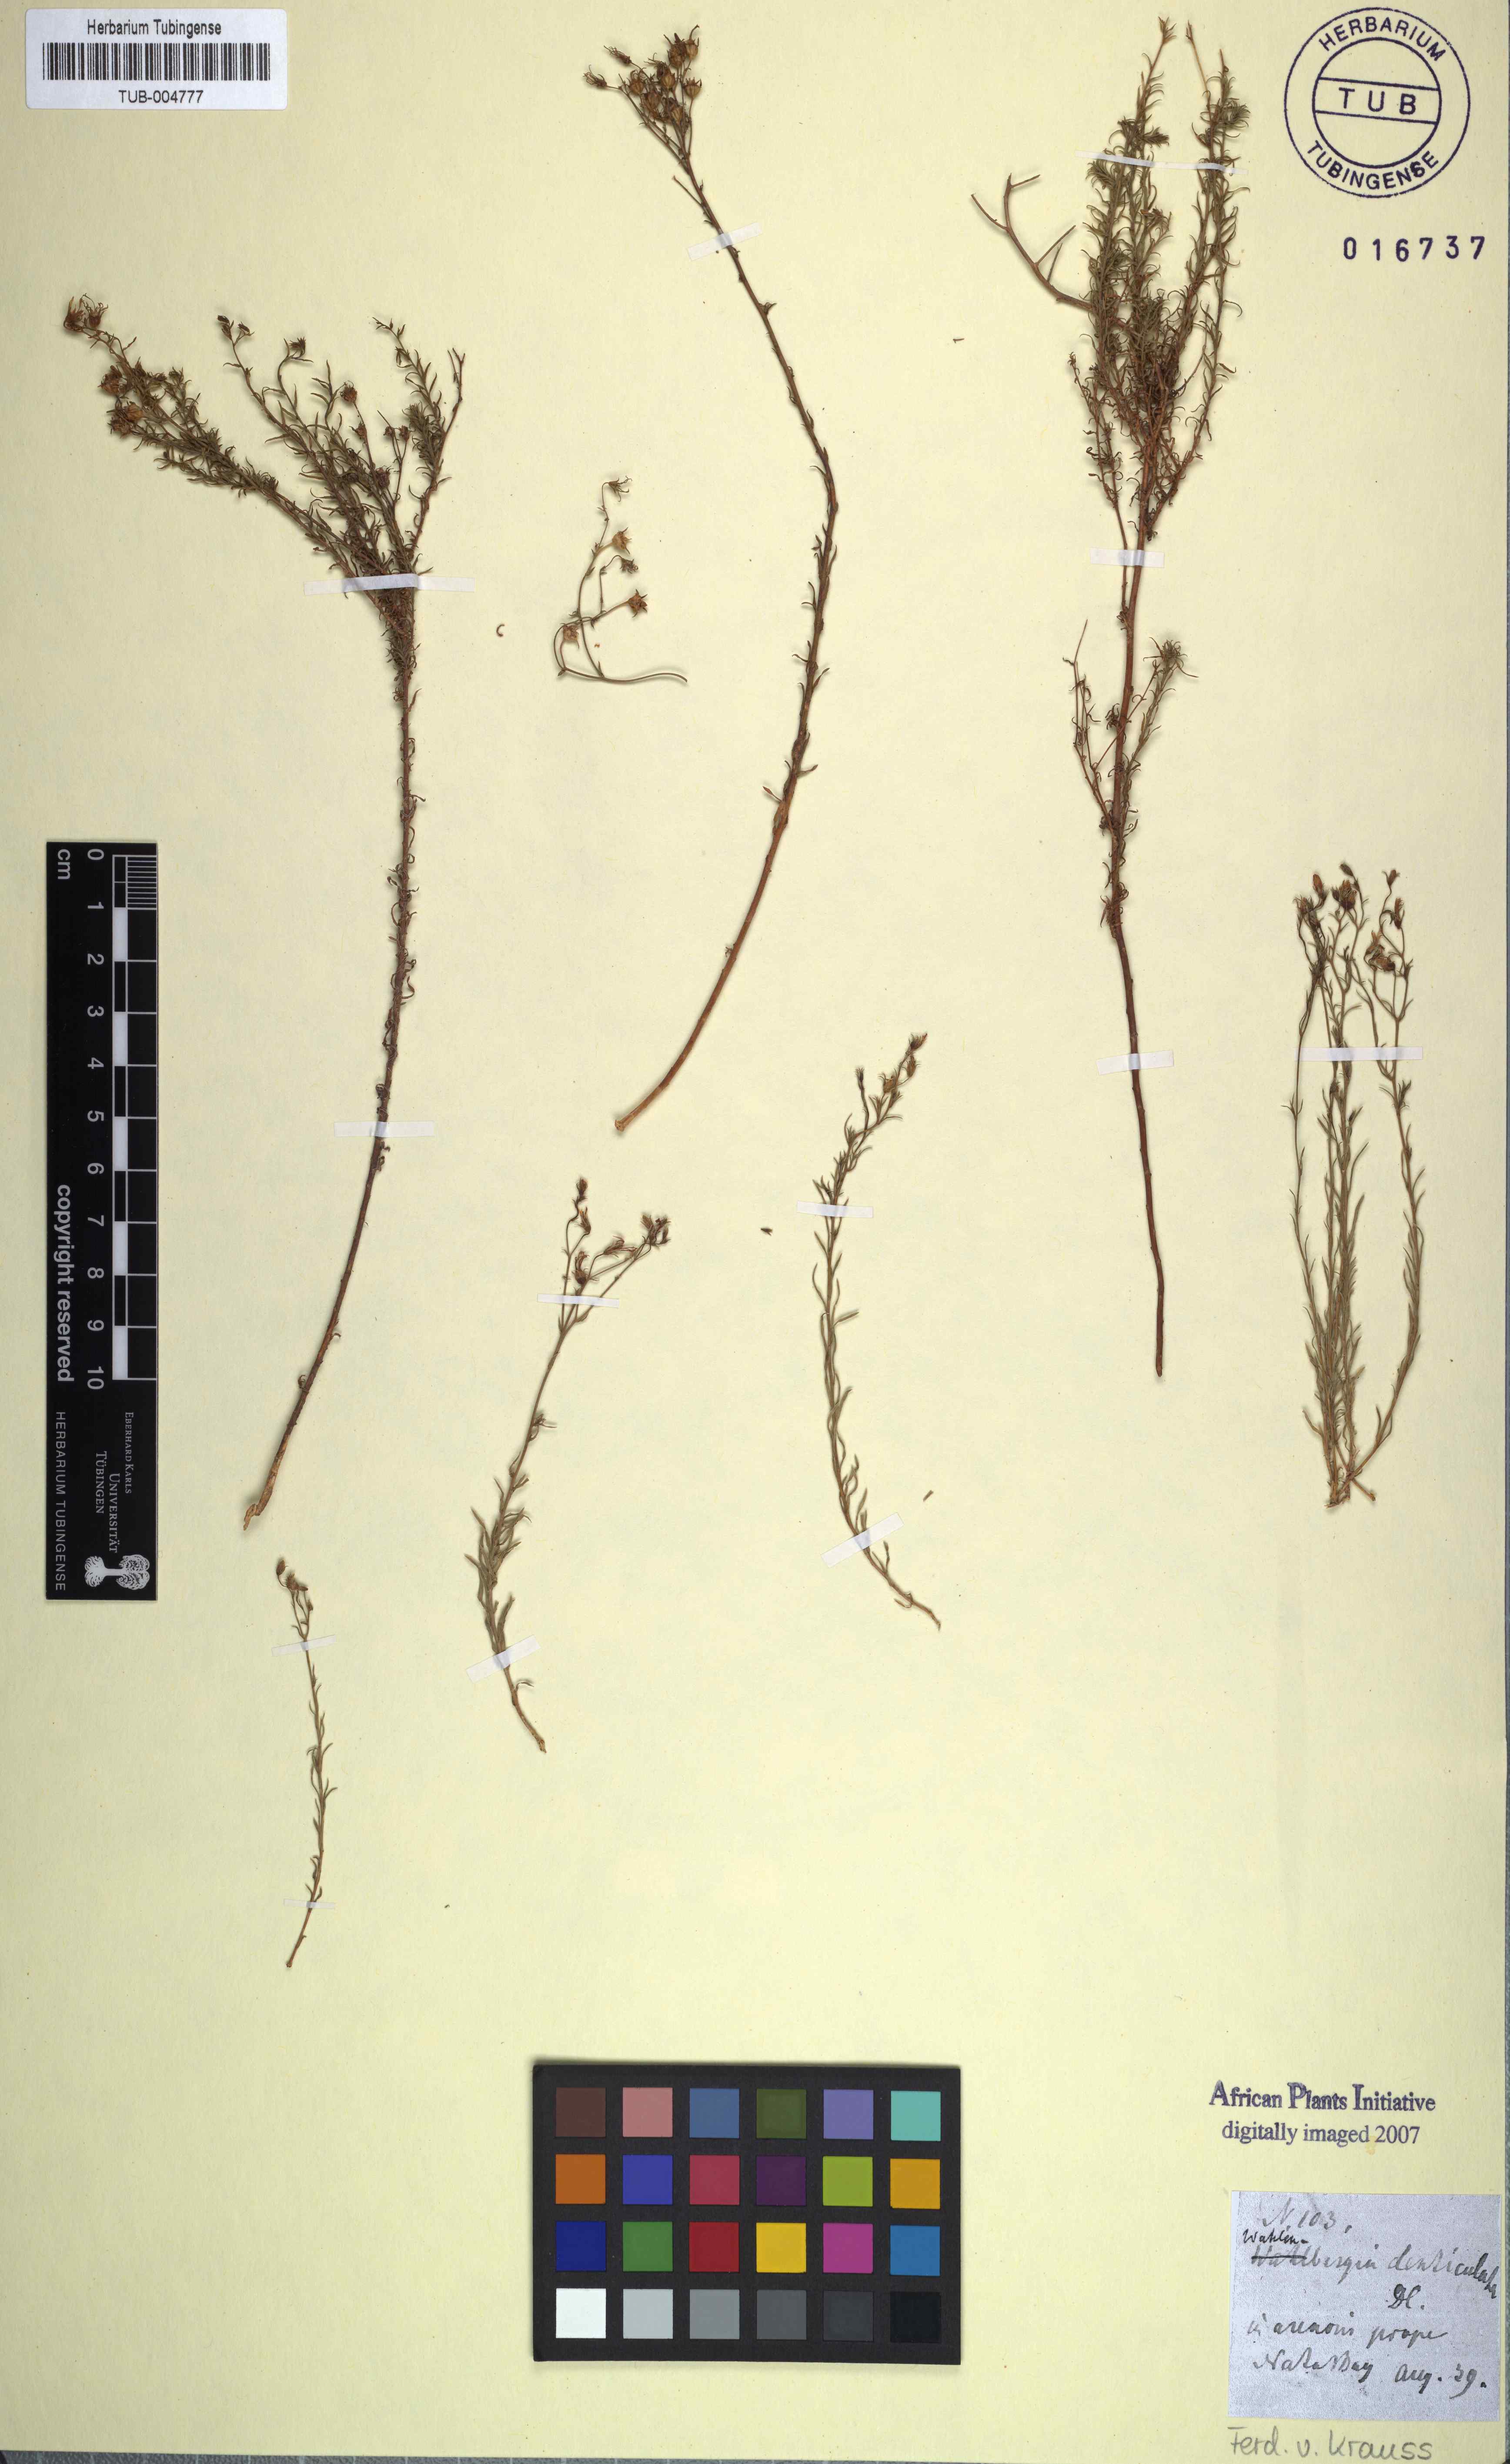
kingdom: Plantae
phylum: Tracheophyta
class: Magnoliopsida
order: Asterales
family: Campanulaceae
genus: Wahlenbergia
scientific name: Wahlenbergia thulinii
